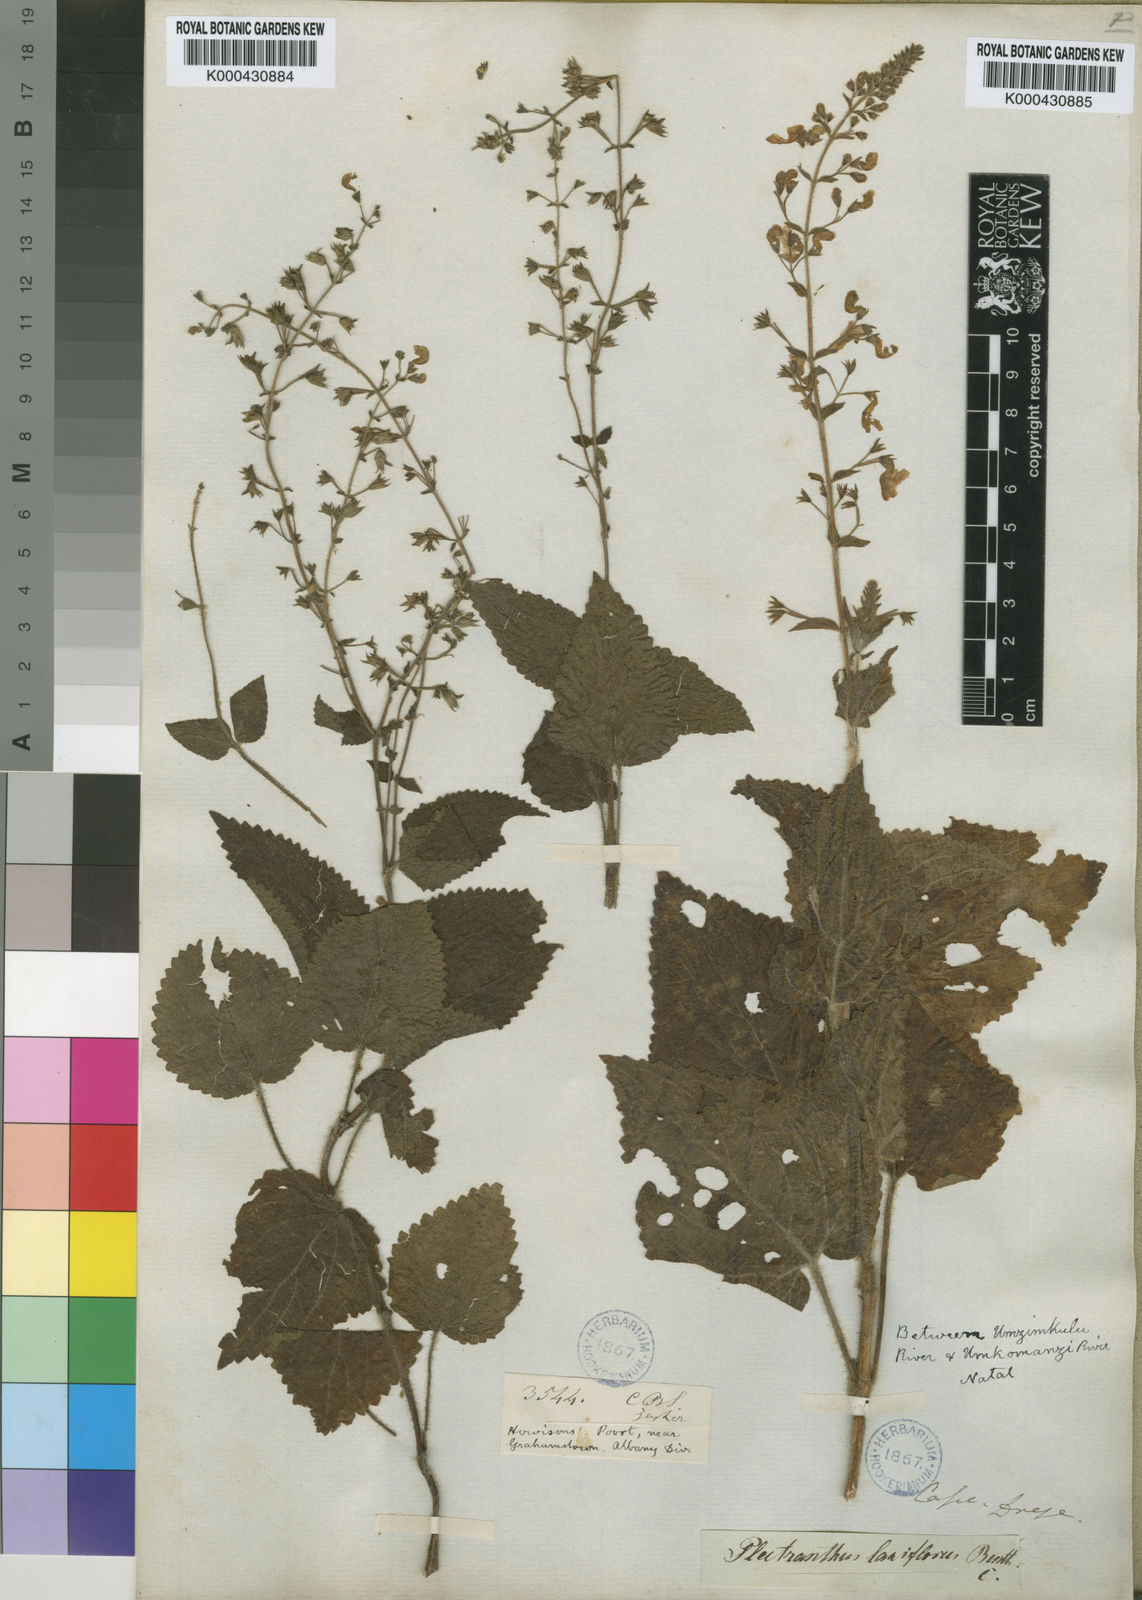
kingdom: Plantae
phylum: Tracheophyta
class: Magnoliopsida
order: Lamiales
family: Lamiaceae
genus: Equilabium
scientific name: Equilabium laxiflorum
